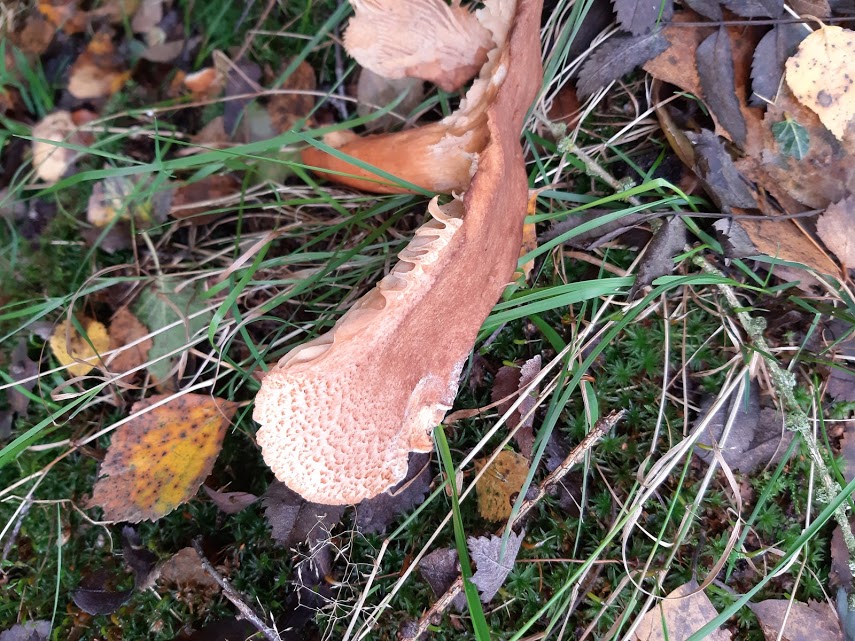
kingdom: Fungi
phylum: Basidiomycota
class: Agaricomycetes
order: Russulales
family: Russulaceae
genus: Lactarius
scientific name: Lactarius helvus
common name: mose-mælkehat
